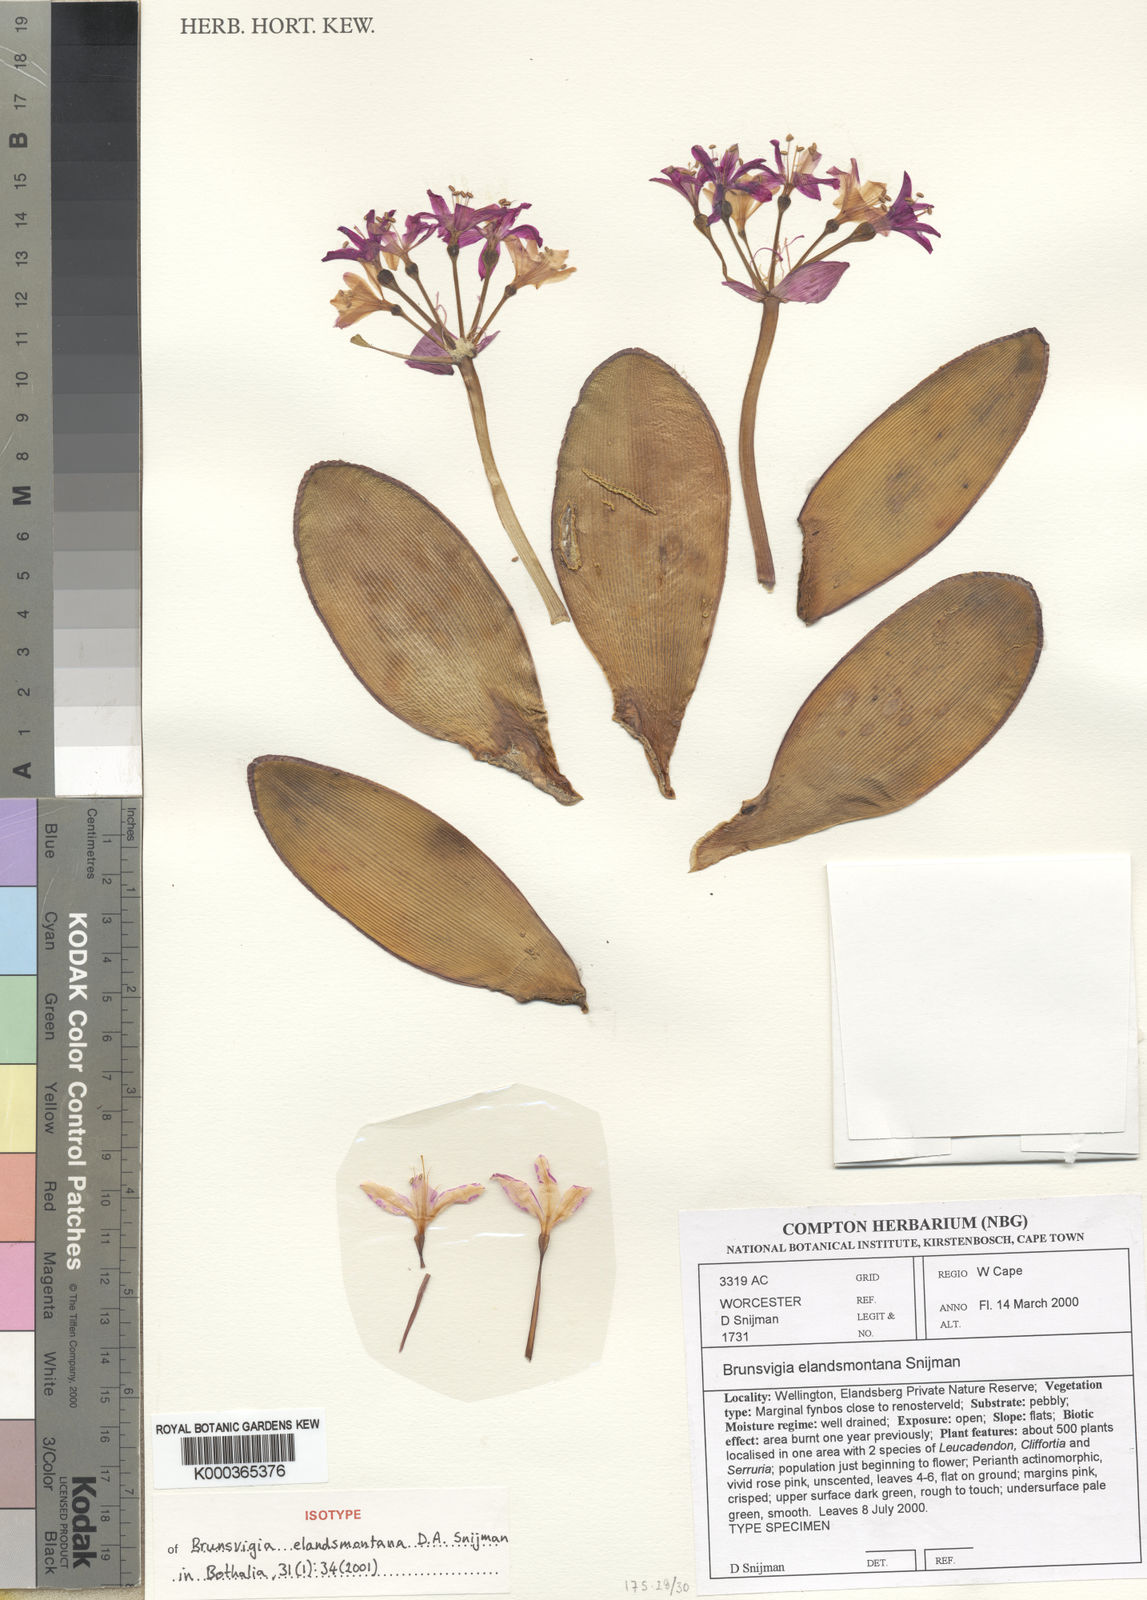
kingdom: Plantae
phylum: Tracheophyta
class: Liliopsida
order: Asparagales
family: Amaryllidaceae
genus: Brunsvigia
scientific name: Brunsvigia elandsmontana
